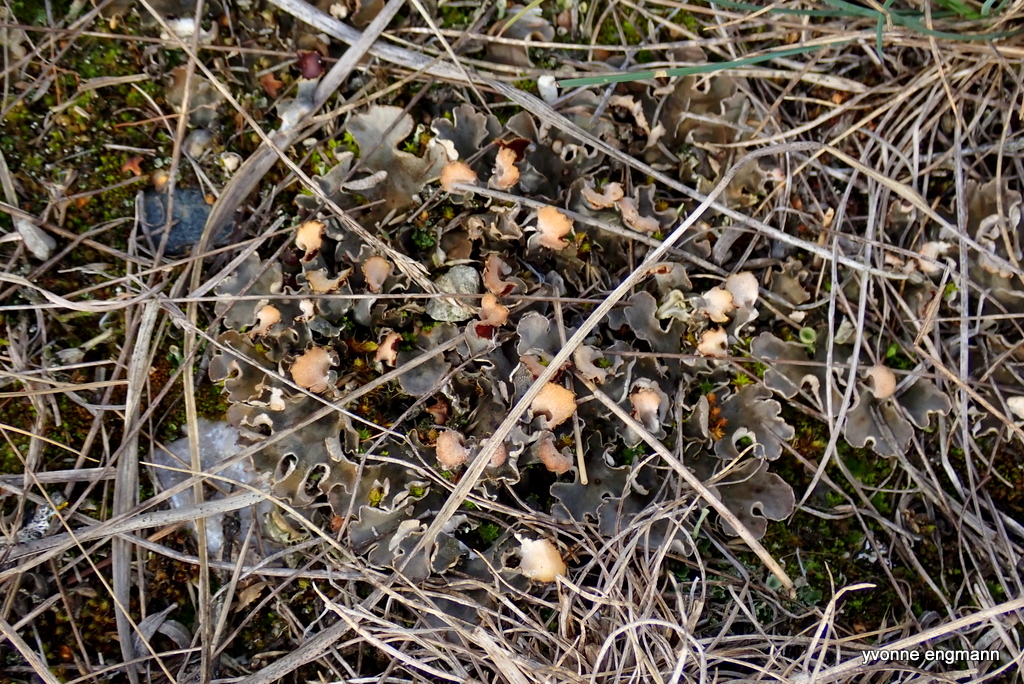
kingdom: Fungi
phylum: Ascomycota
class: Lecanoromycetes
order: Peltigerales
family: Peltigeraceae
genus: Peltigera
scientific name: Peltigera canina
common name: hunde-skjoldlav
